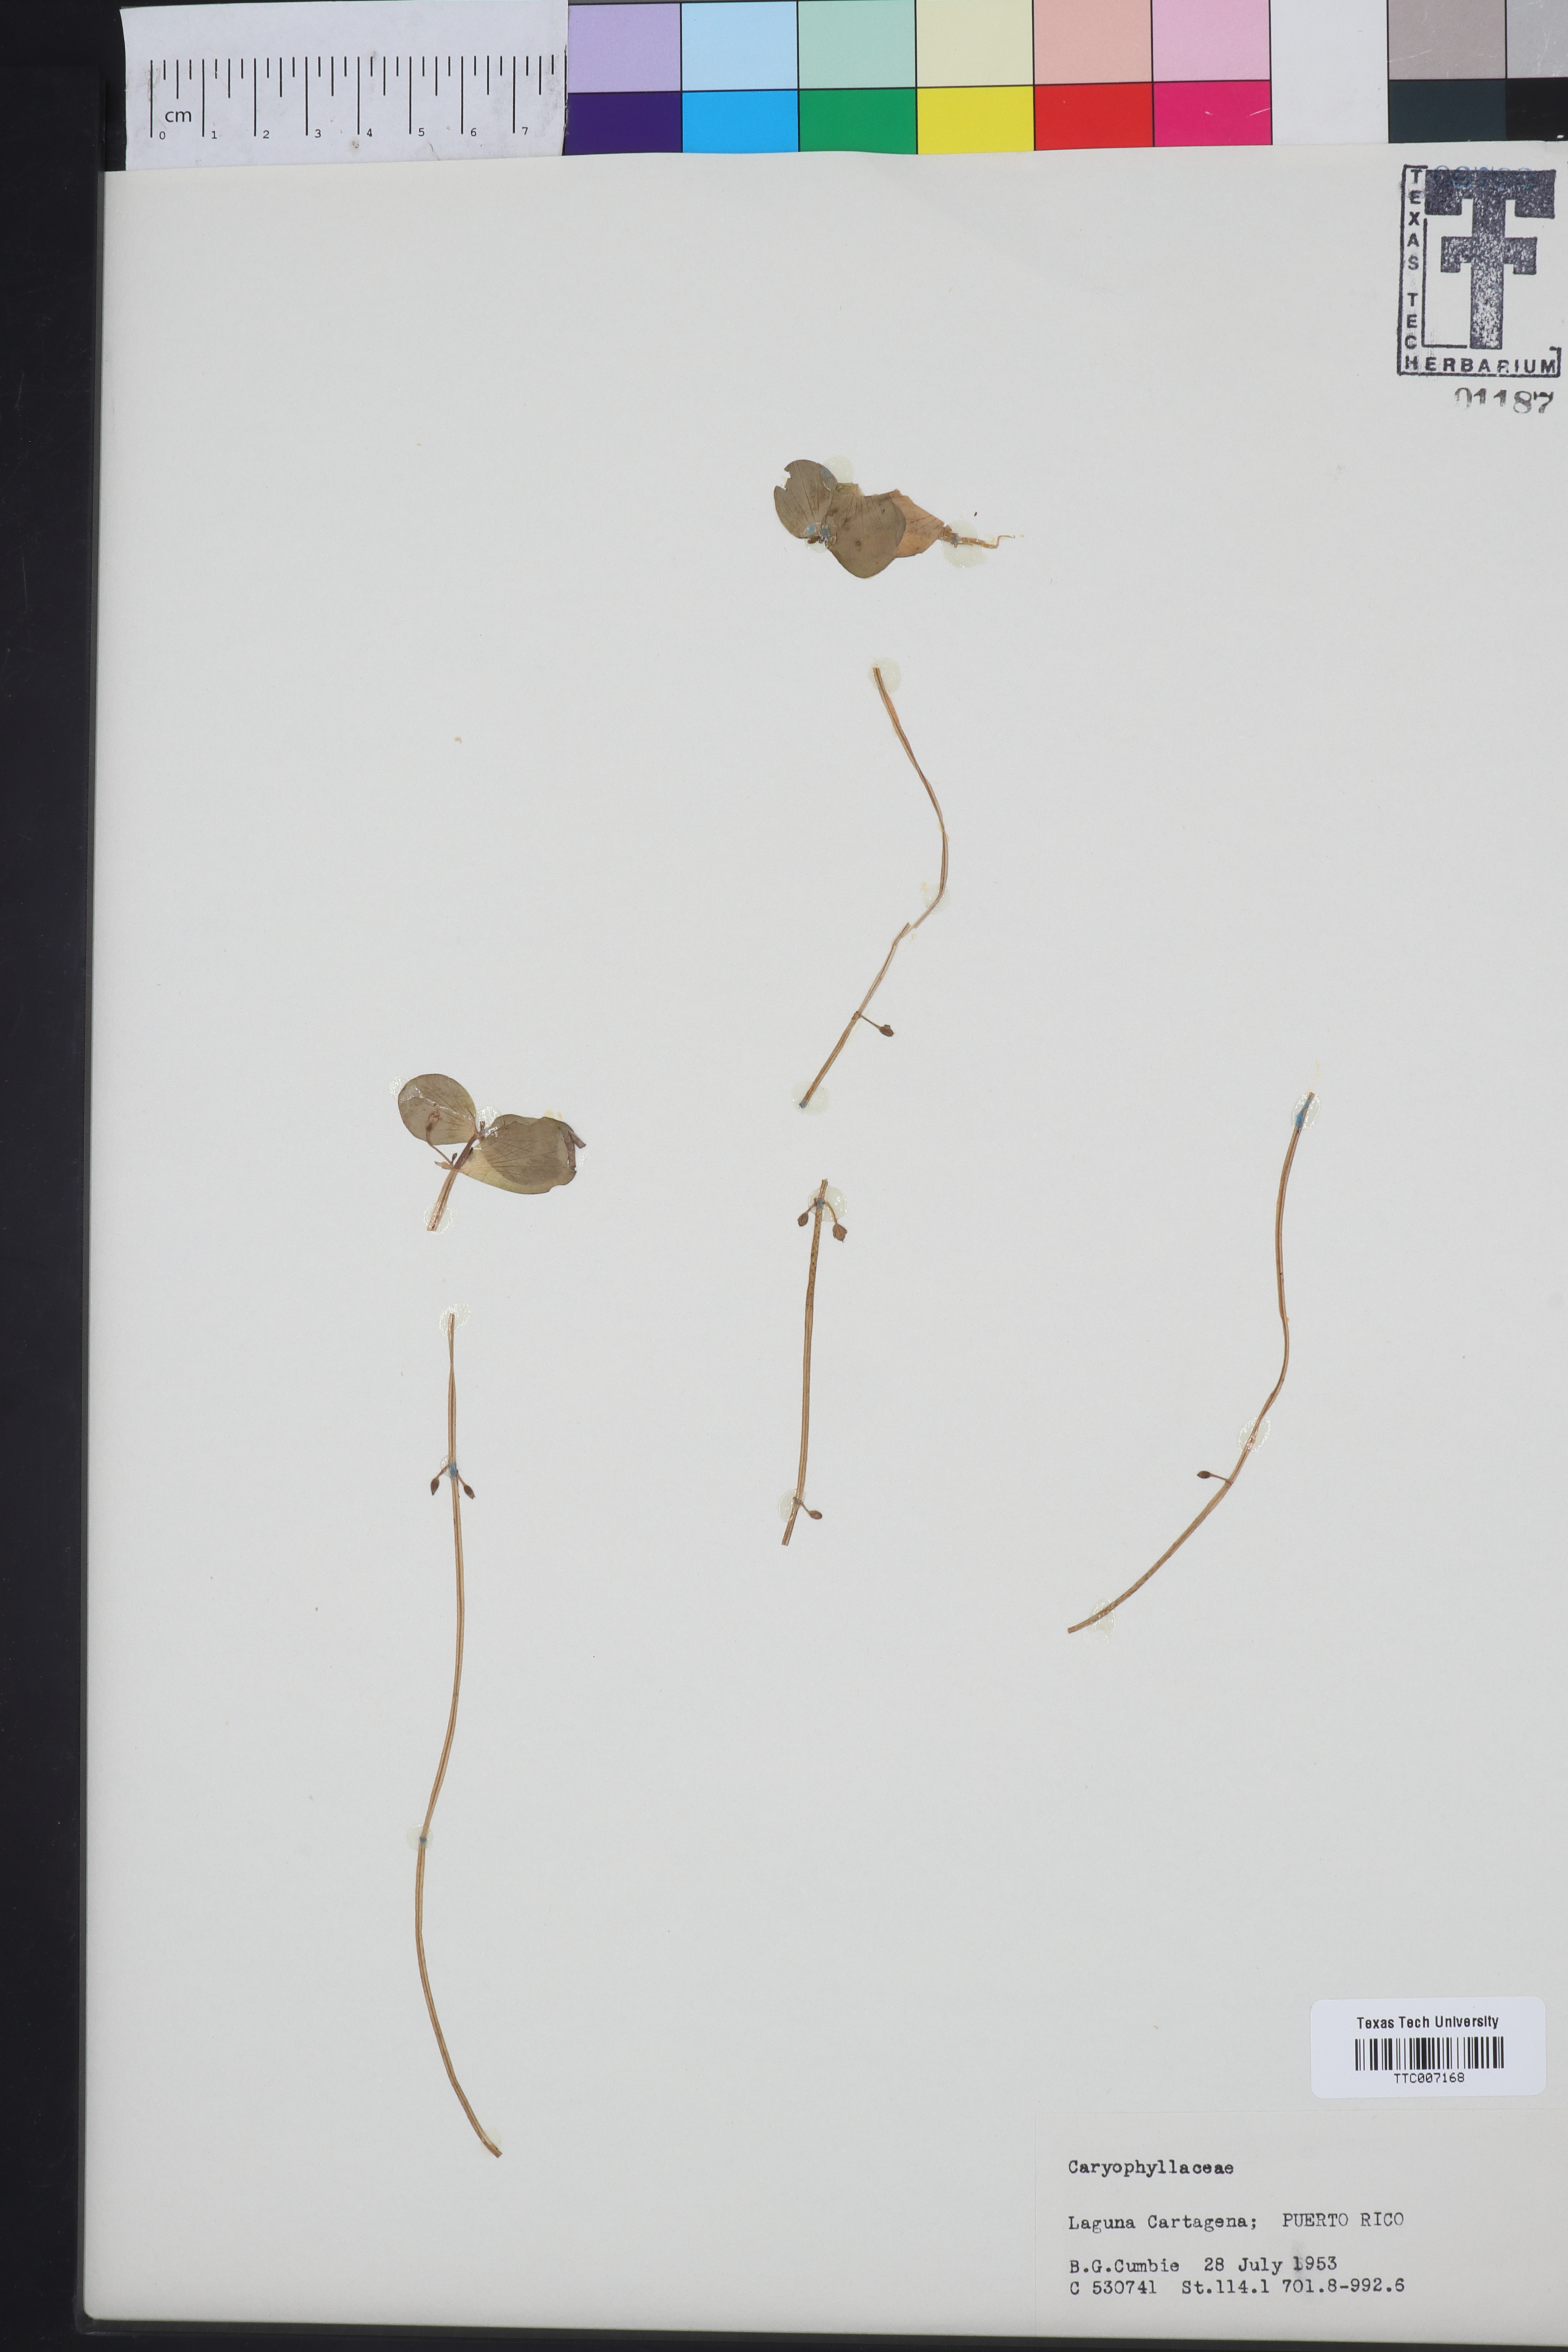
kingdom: Plantae
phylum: Tracheophyta
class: Magnoliopsida
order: Caryophyllales
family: Caryophyllaceae
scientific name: Caryophyllaceae
